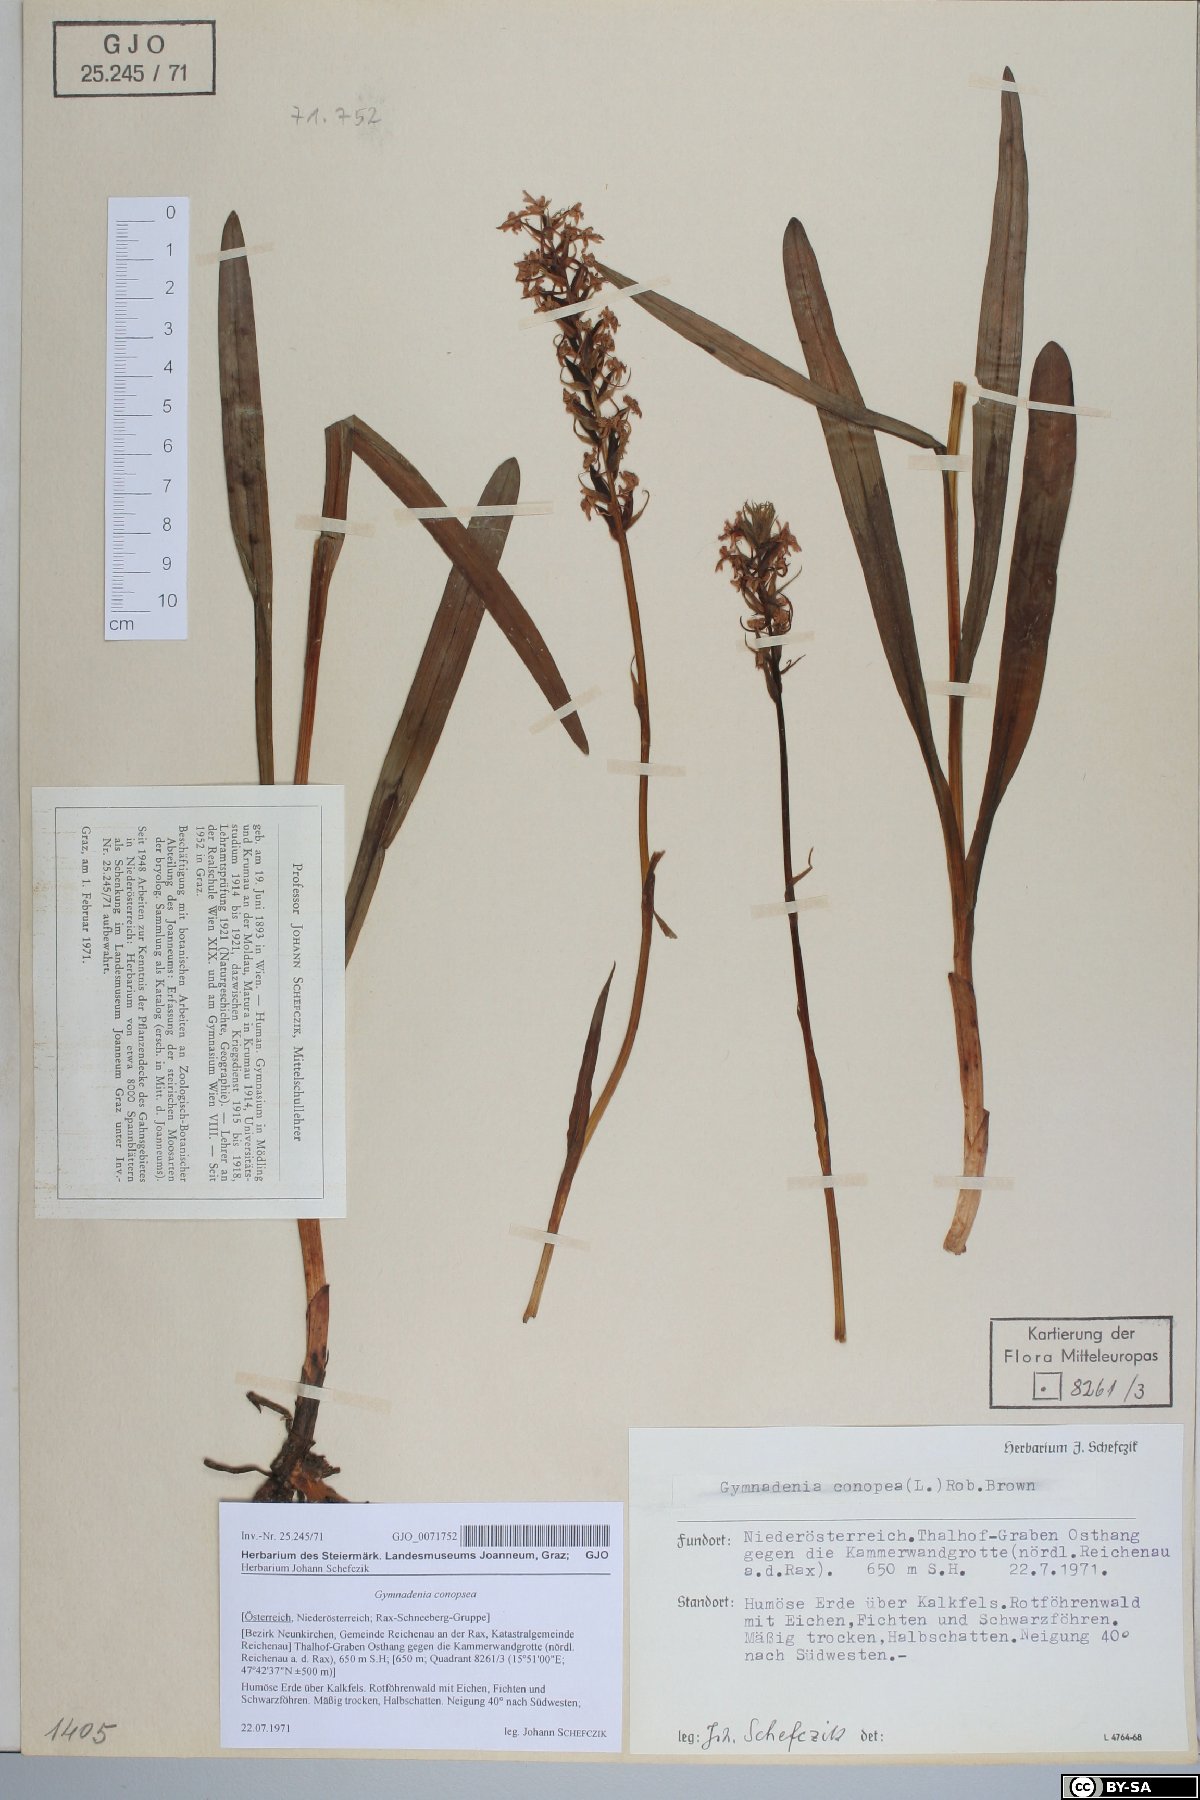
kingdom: Plantae
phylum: Tracheophyta
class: Liliopsida
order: Asparagales
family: Orchidaceae
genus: Gymnadenia
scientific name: Gymnadenia conopsea
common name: Fragrant orchid
